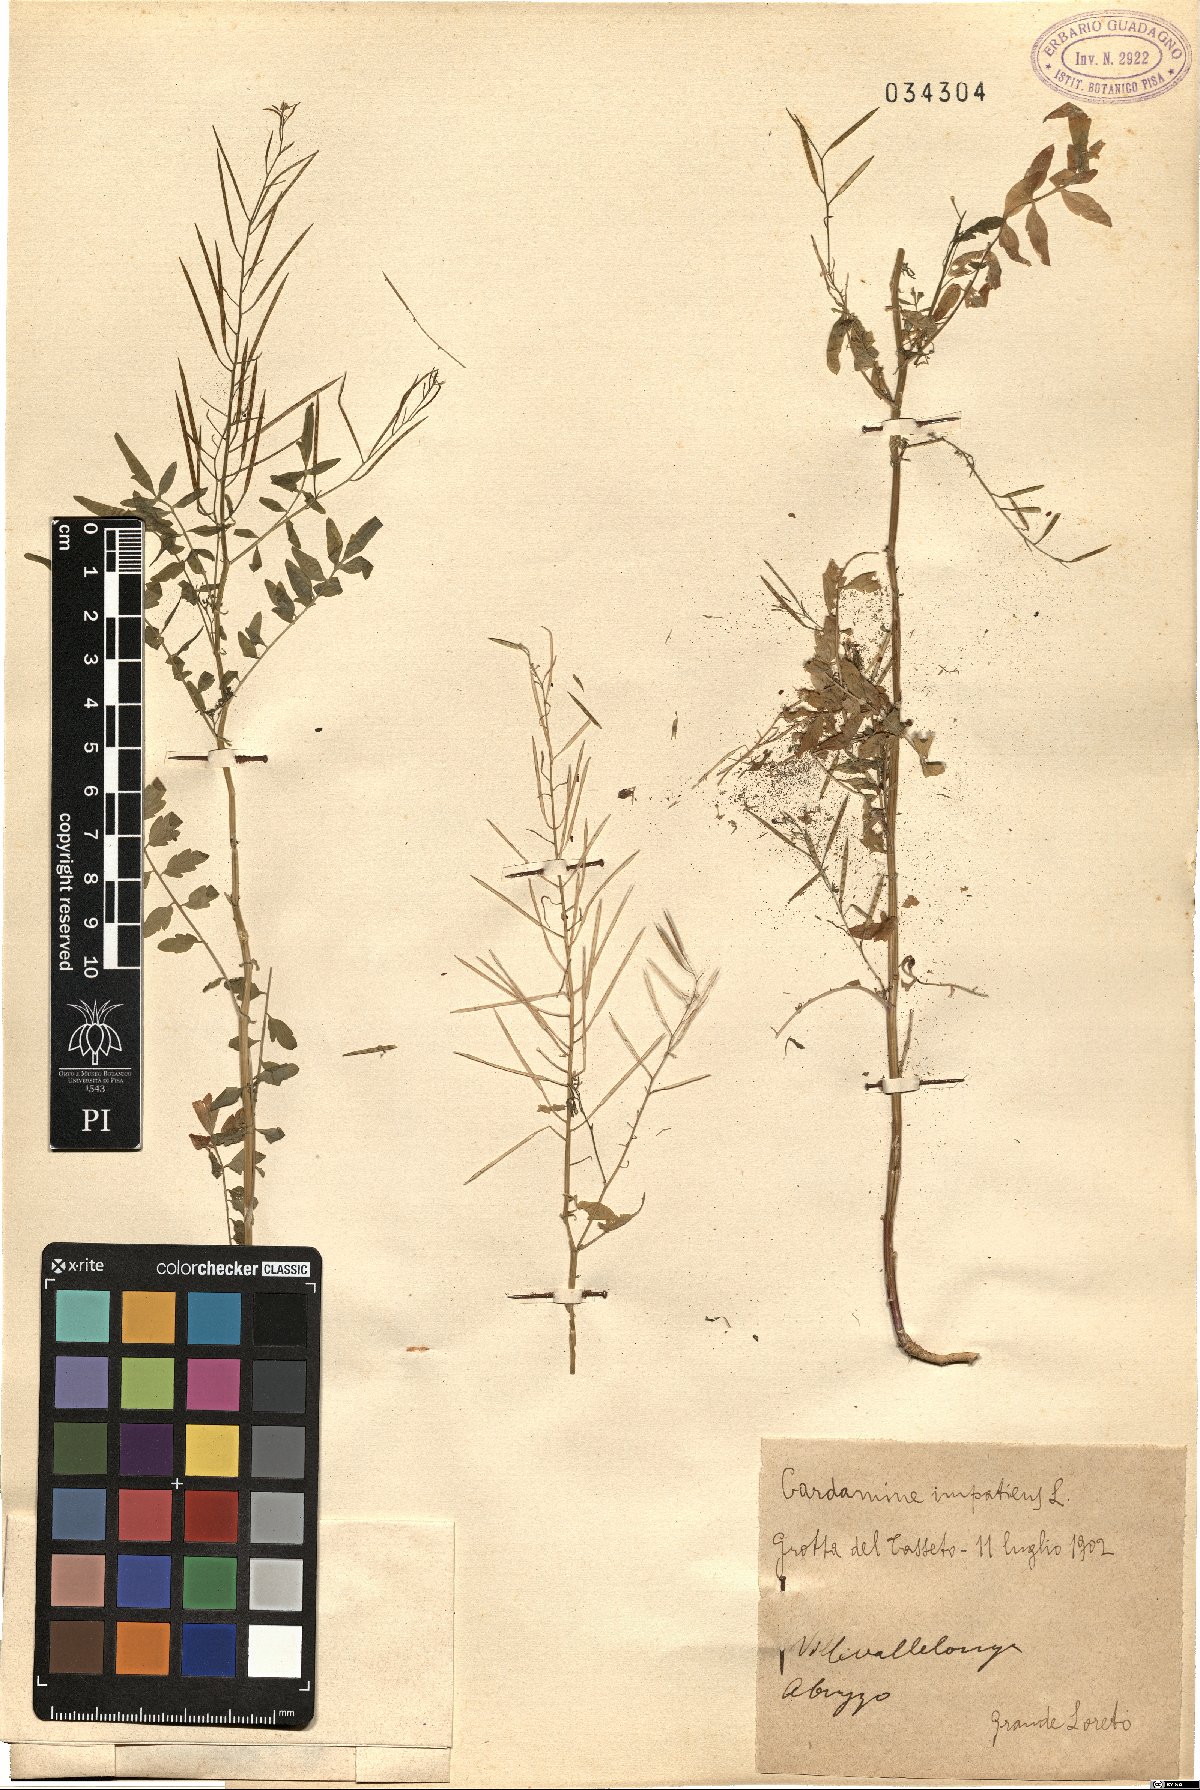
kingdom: Plantae
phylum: Tracheophyta
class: Magnoliopsida
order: Brassicales
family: Brassicaceae
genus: Cardamine
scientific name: Cardamine impatiens
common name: Narrow-leaved bitter-cress
